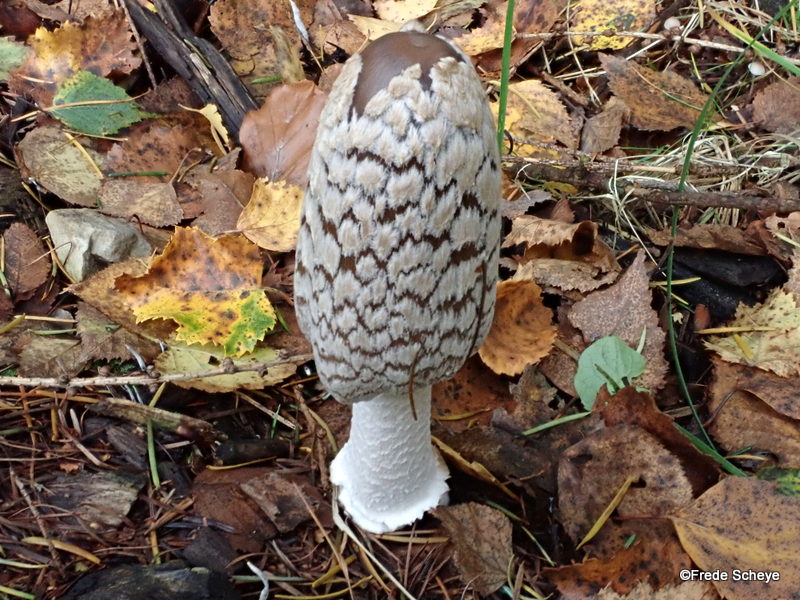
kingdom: Fungi
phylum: Basidiomycota
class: Agaricomycetes
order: Agaricales
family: Psathyrellaceae
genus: Coprinopsis
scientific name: Coprinopsis picacea
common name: skade-blækhat
